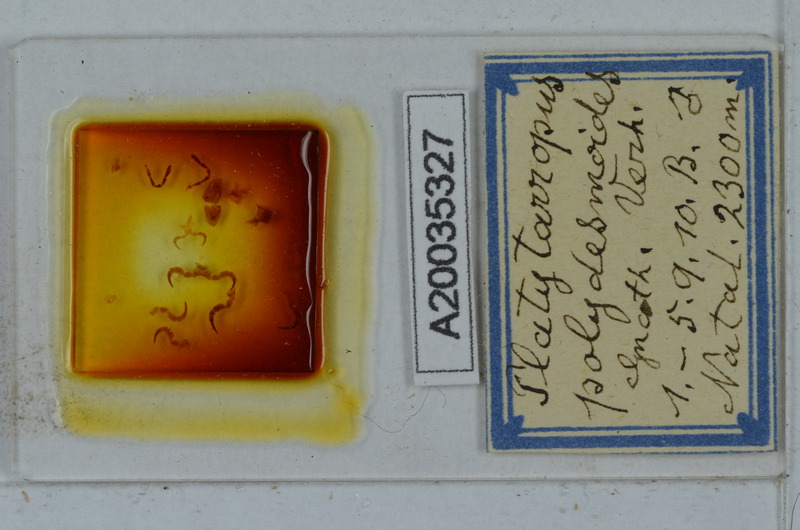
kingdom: Animalia
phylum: Arthropoda
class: Diplopoda
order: Polydesmida
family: Dalodesmidae
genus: Platytarropus
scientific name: Platytarropus polydesmoides
